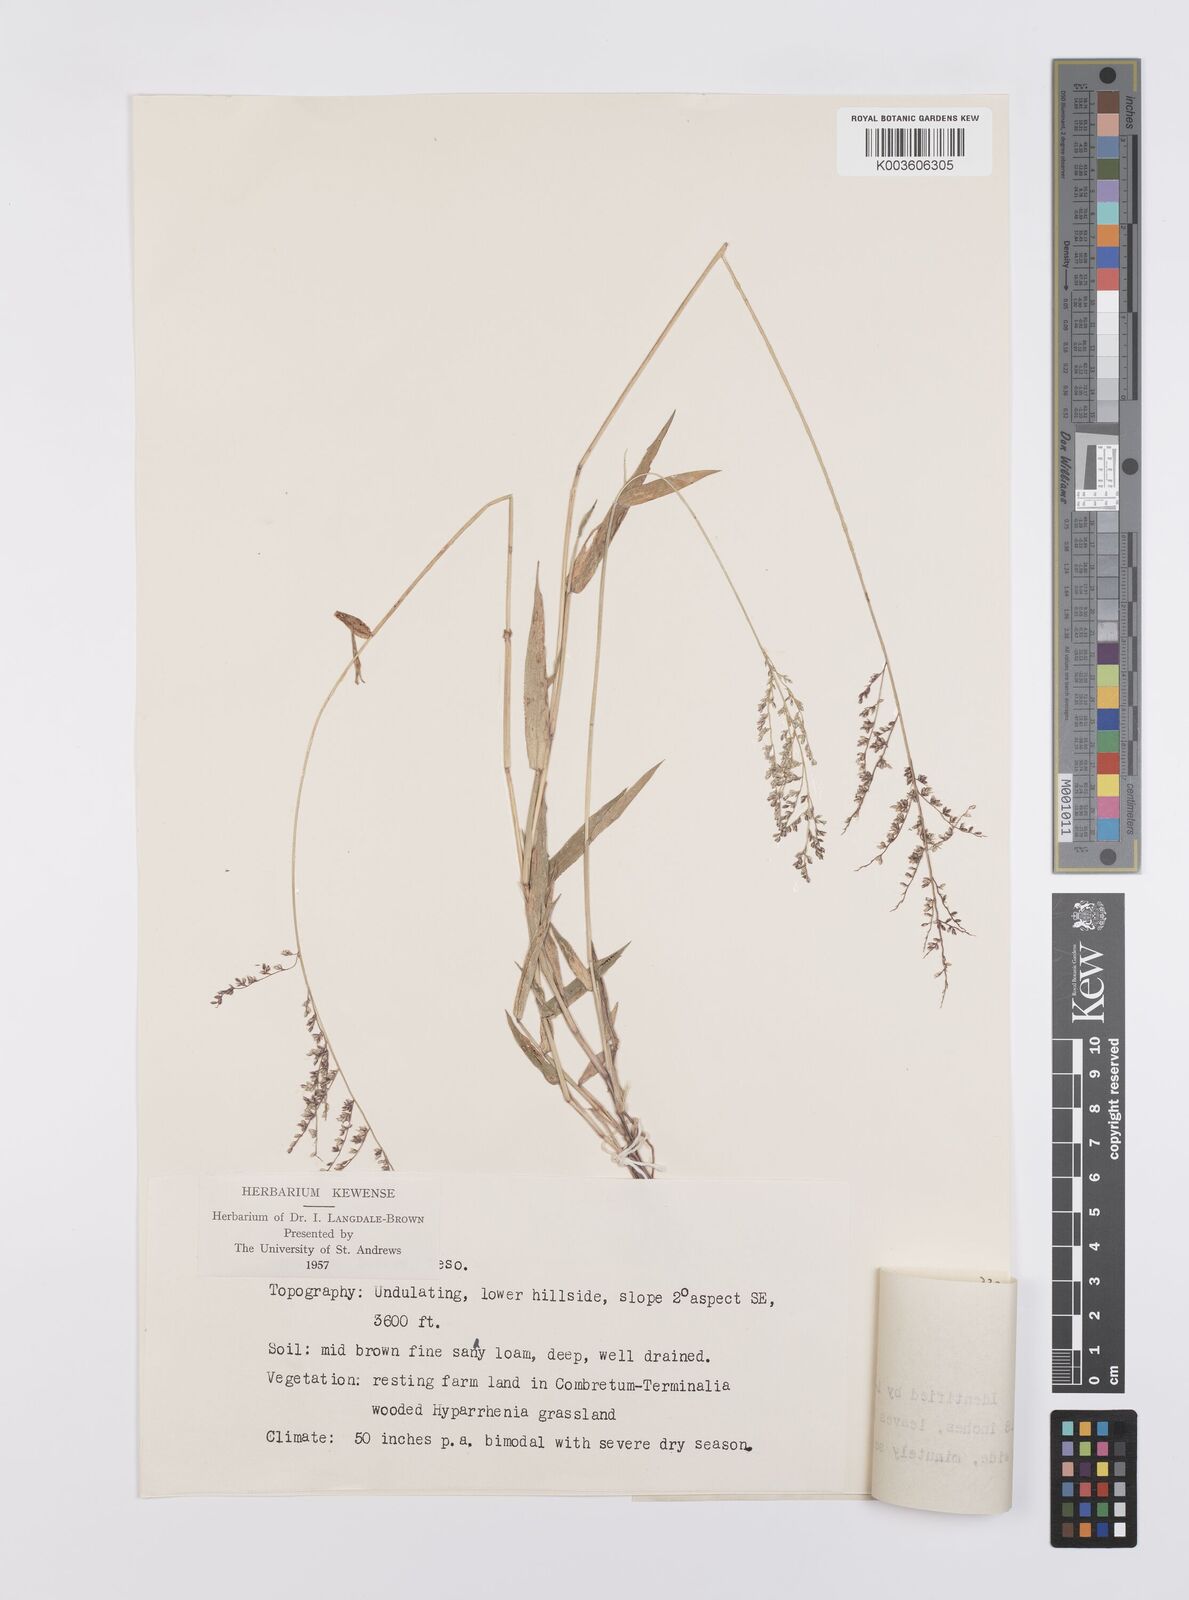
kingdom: Plantae
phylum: Tracheophyta
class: Liliopsida
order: Poales
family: Poaceae
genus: Urochloa
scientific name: Urochloa comata
